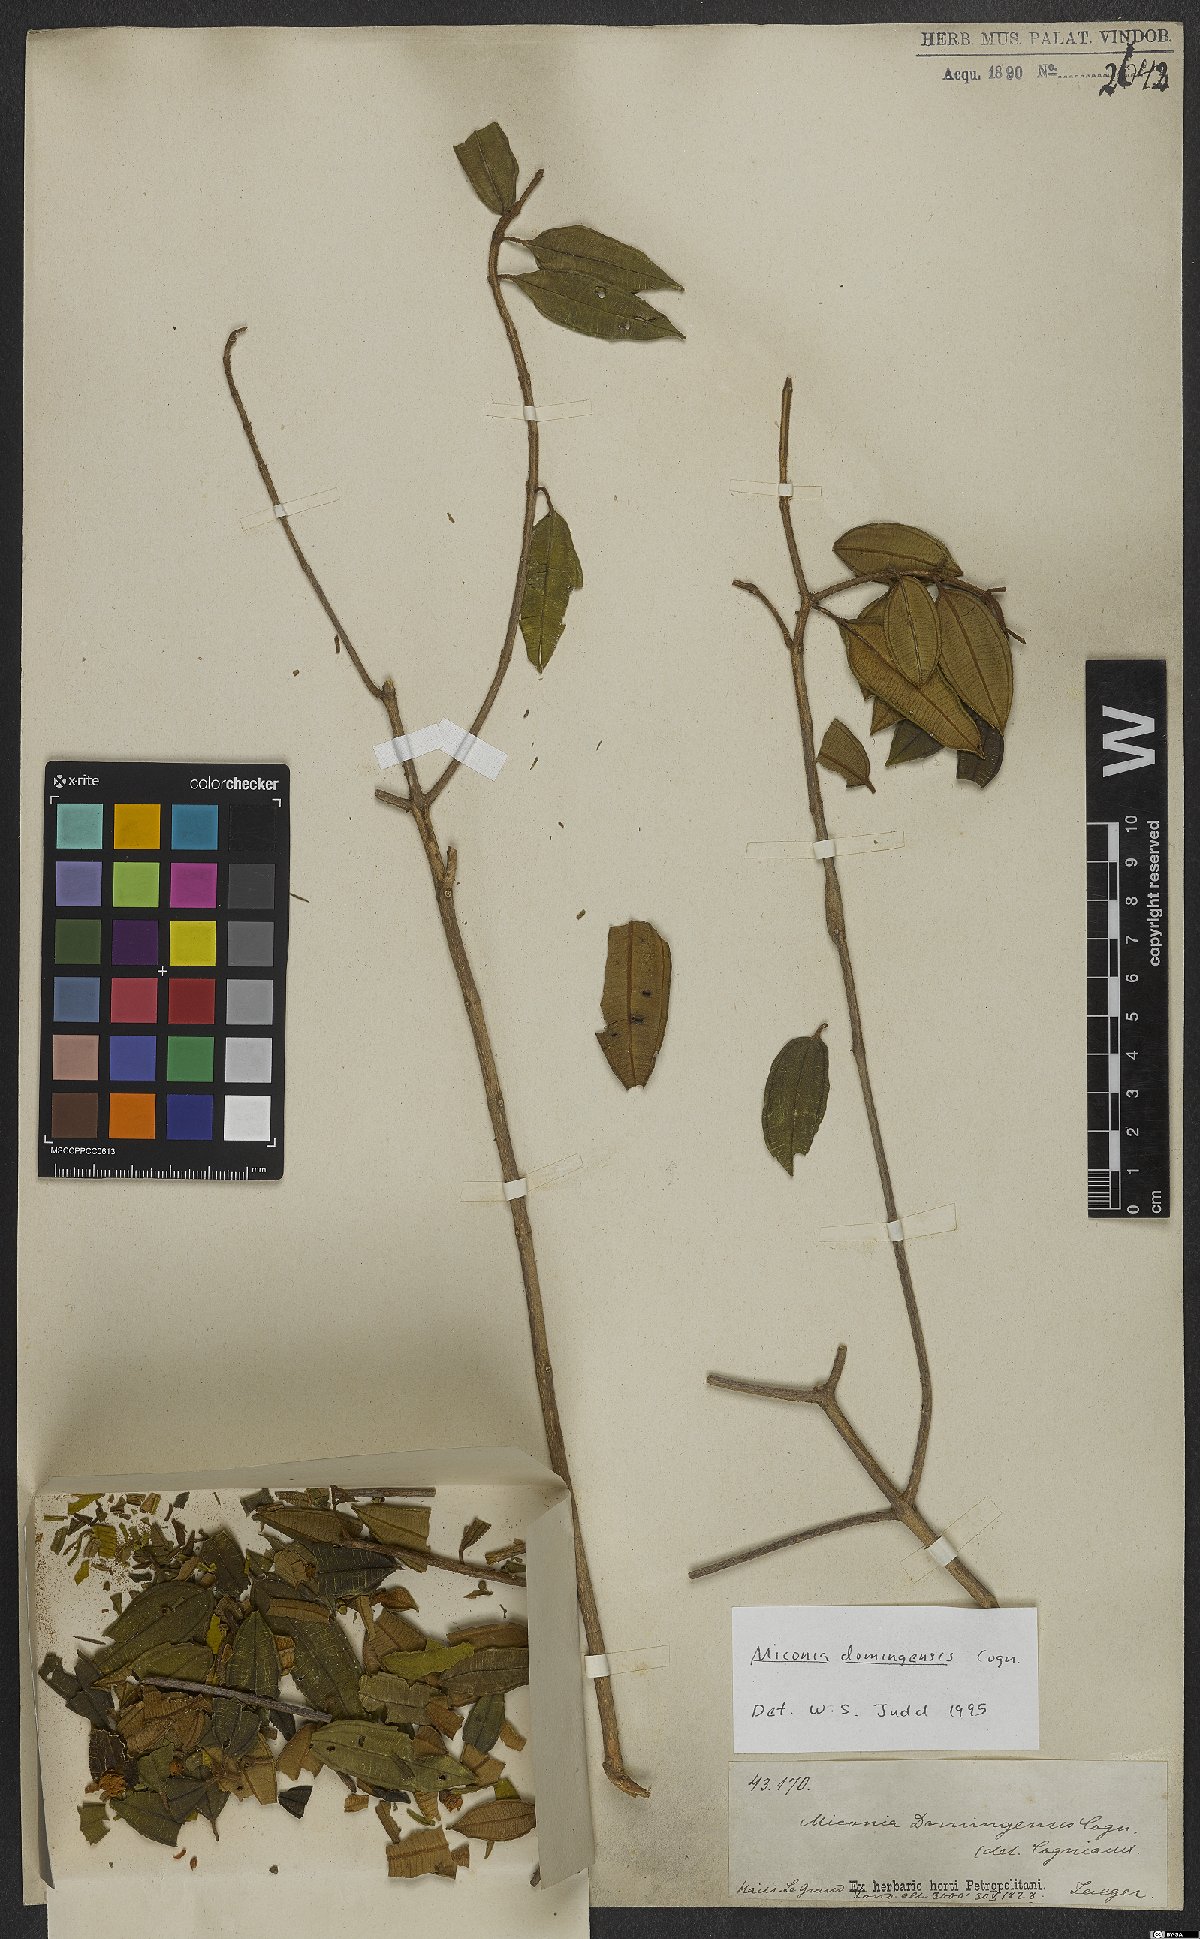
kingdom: Plantae
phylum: Tracheophyta
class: Magnoliopsida
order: Myrtales
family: Melastomataceae
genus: Miconia
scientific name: Miconia domingensis
